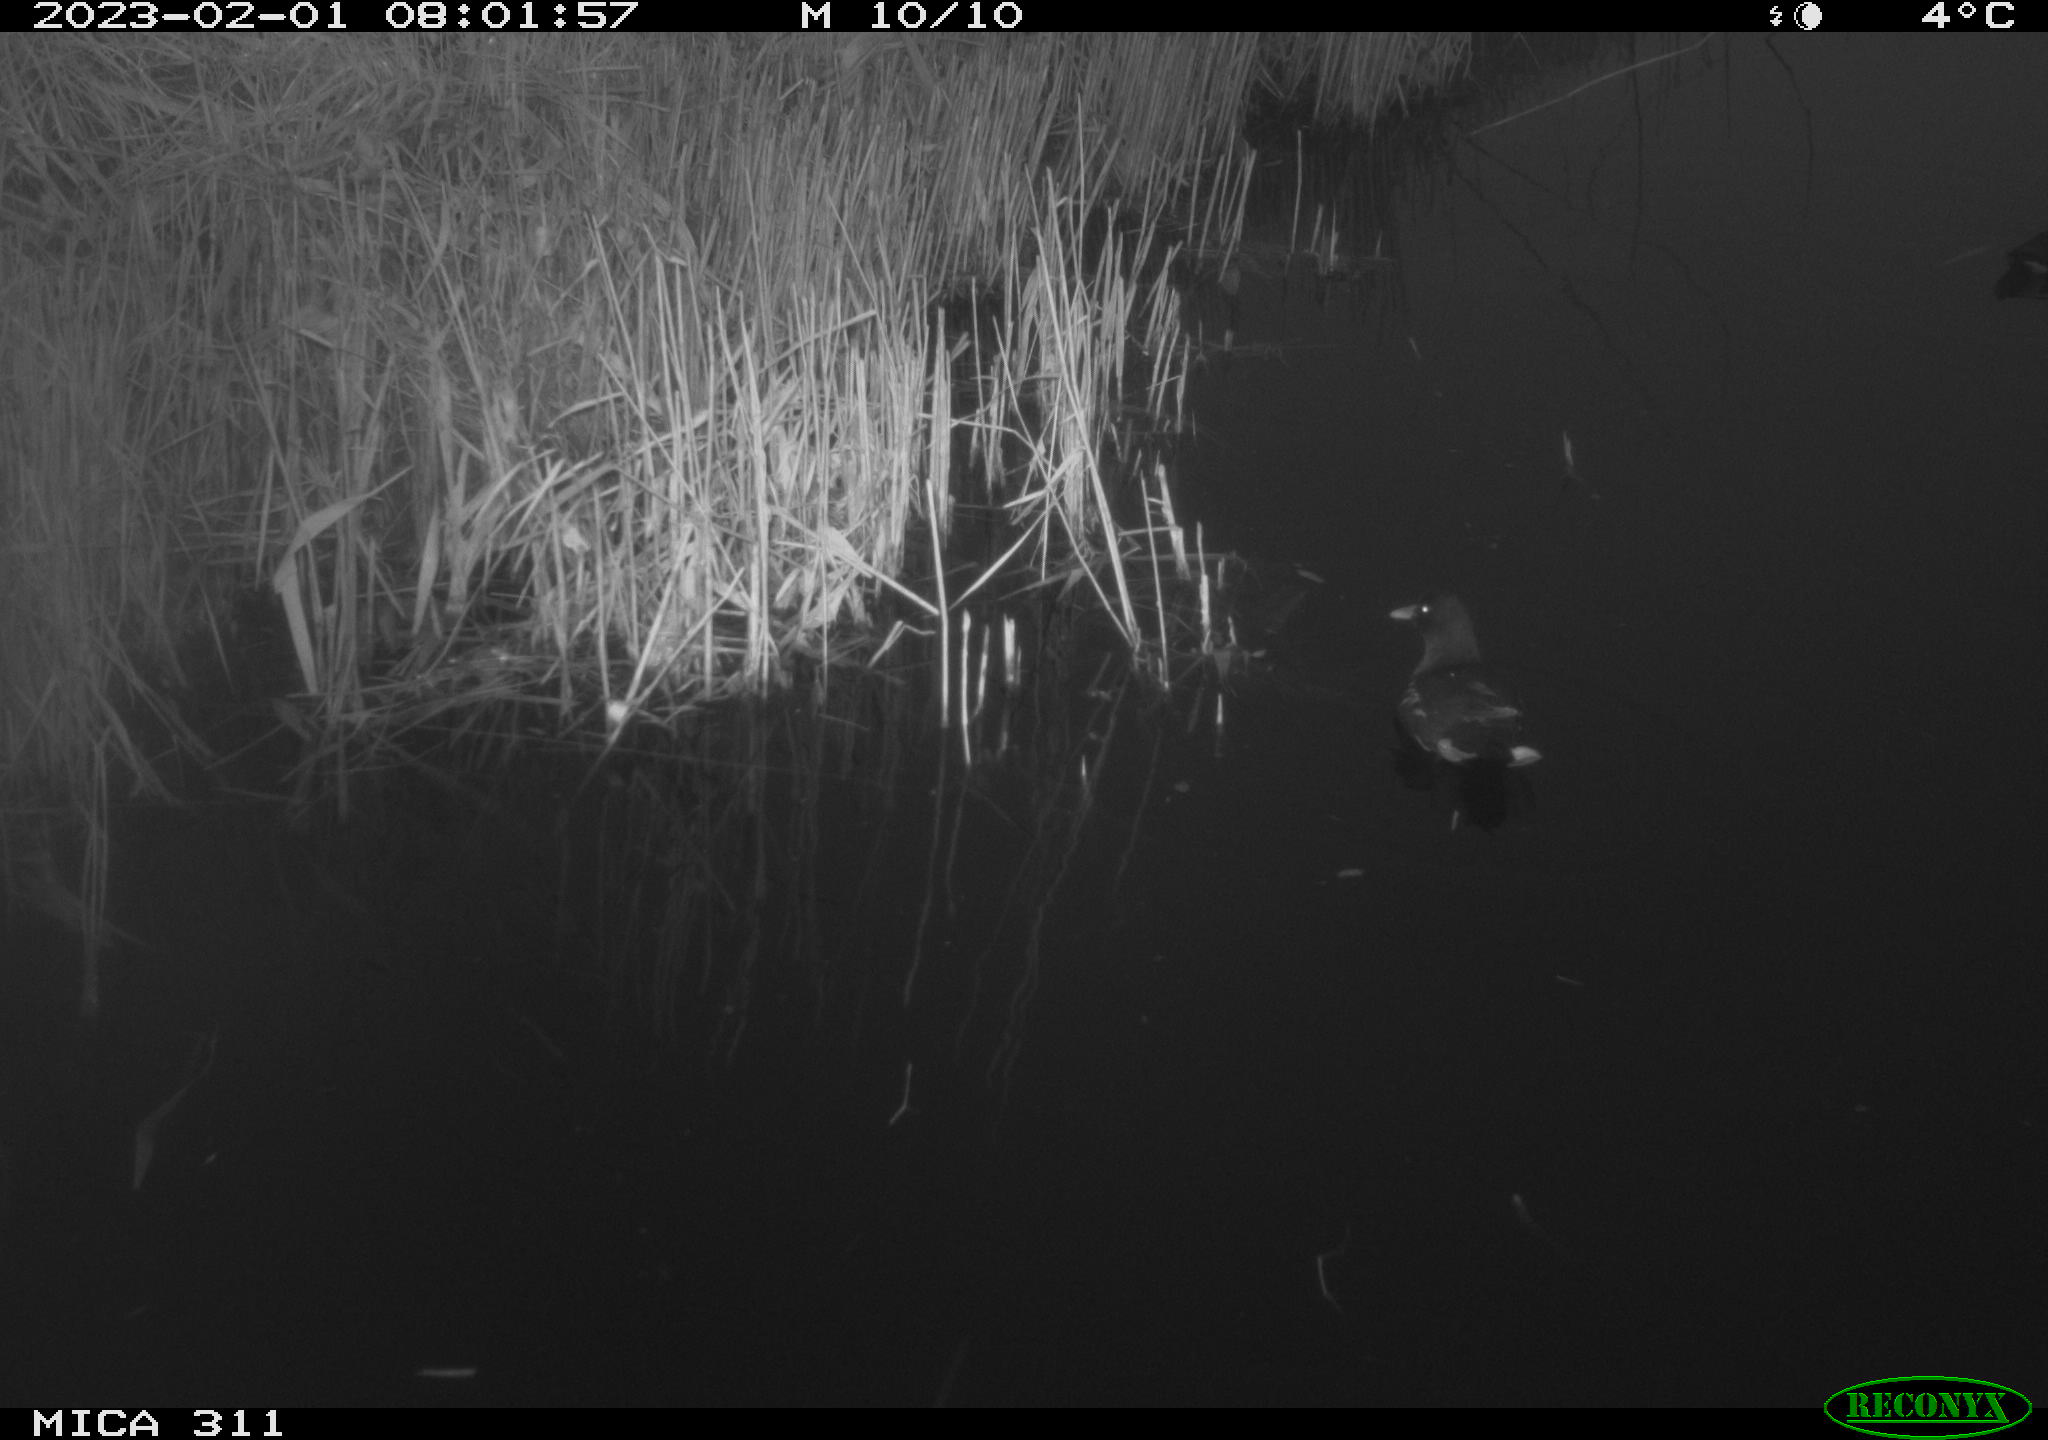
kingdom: Animalia
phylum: Chordata
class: Aves
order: Gruiformes
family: Rallidae
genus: Gallinula
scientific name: Gallinula chloropus
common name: Common moorhen
